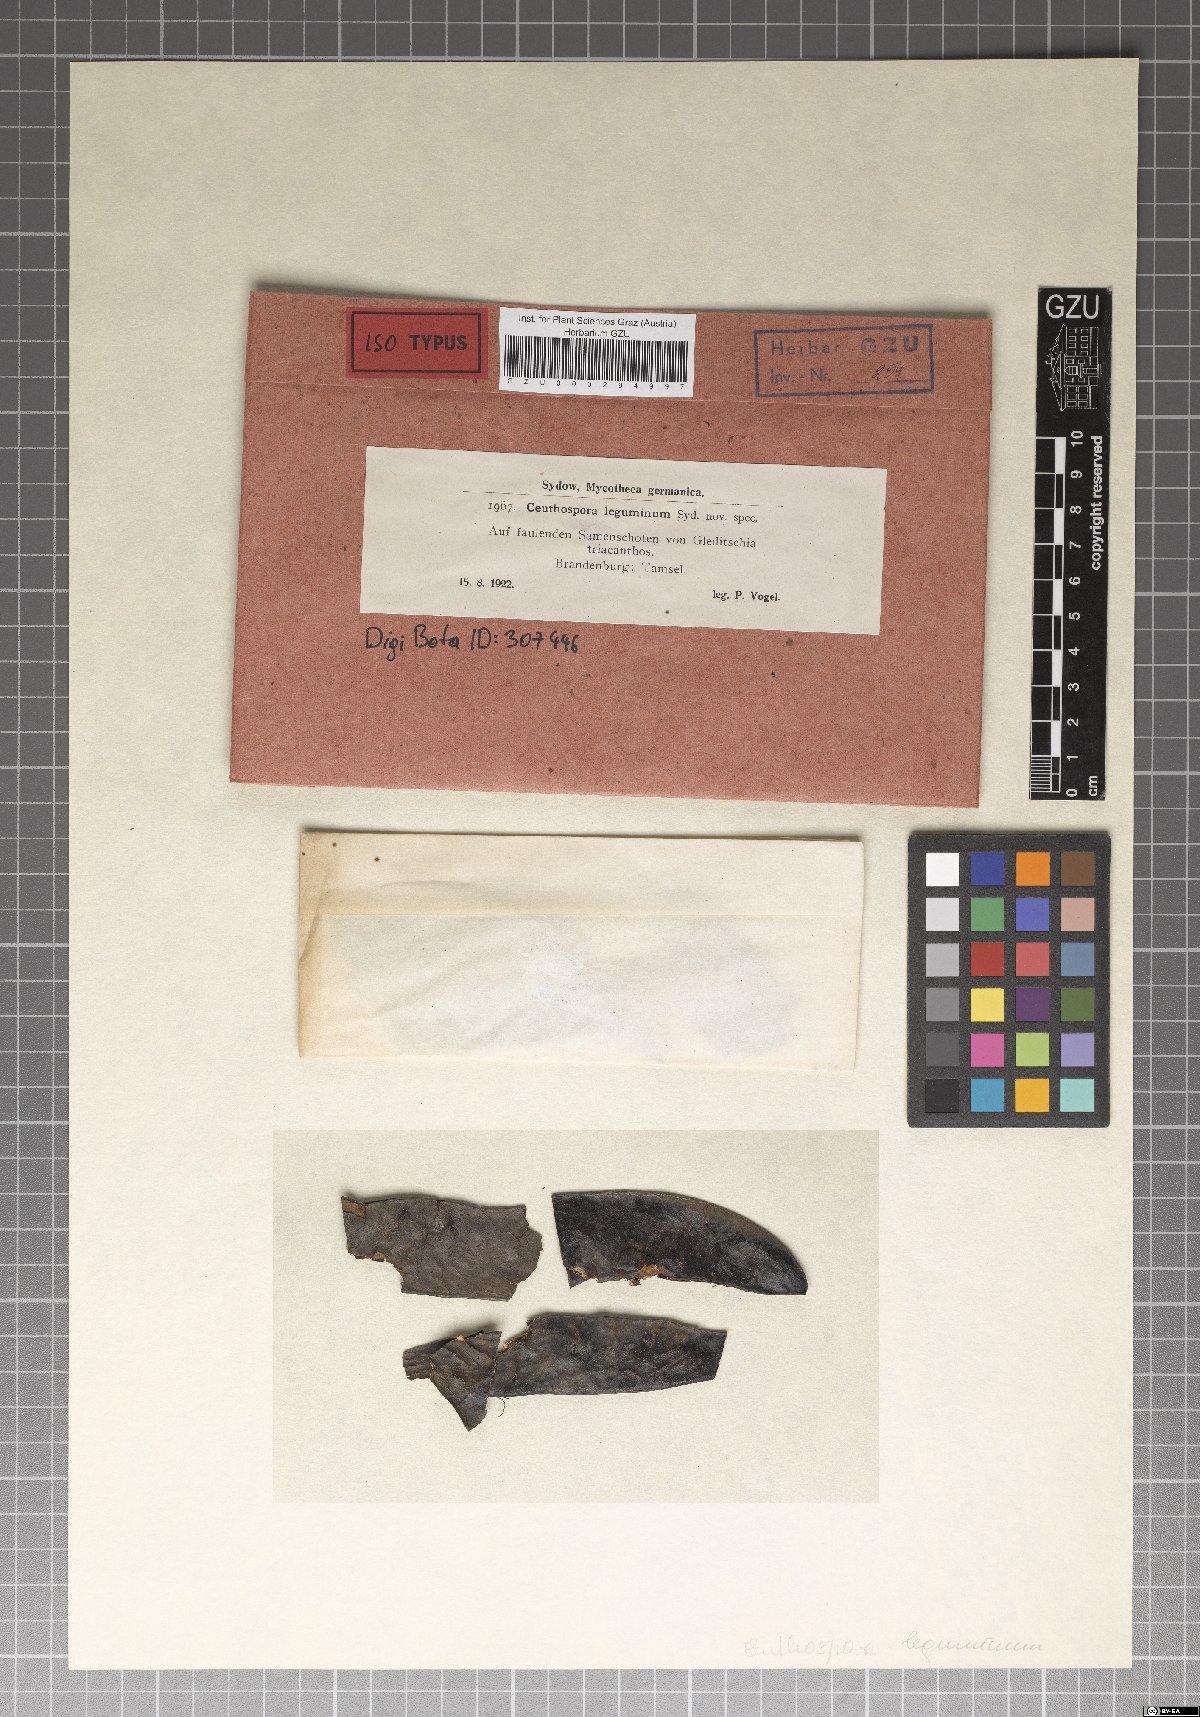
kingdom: Fungi
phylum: Ascomycota
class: Leotiomycetes
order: Phacidiales
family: Phacidiaceae
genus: Ceuthospora
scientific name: Ceuthospora leguminum
